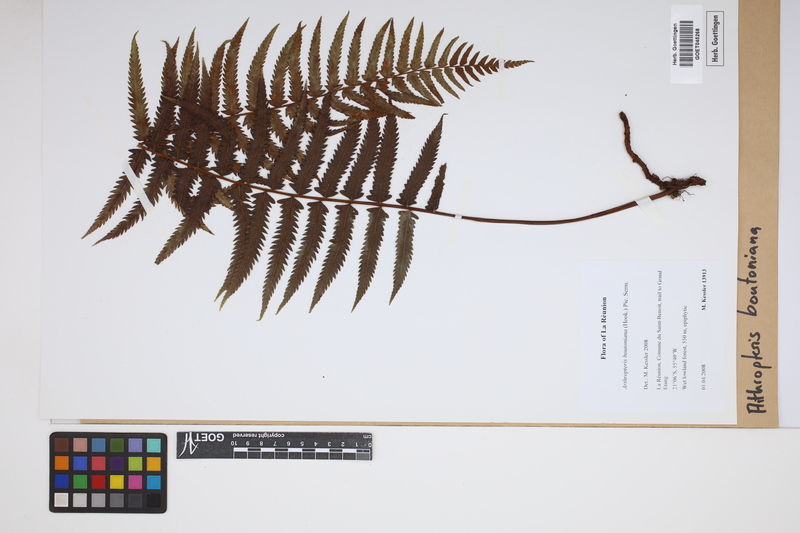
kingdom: Plantae
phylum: Tracheophyta
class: Polypodiopsida
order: Polypodiales
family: Tectariaceae
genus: Arthropteris
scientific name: Arthropteris boutoniana
